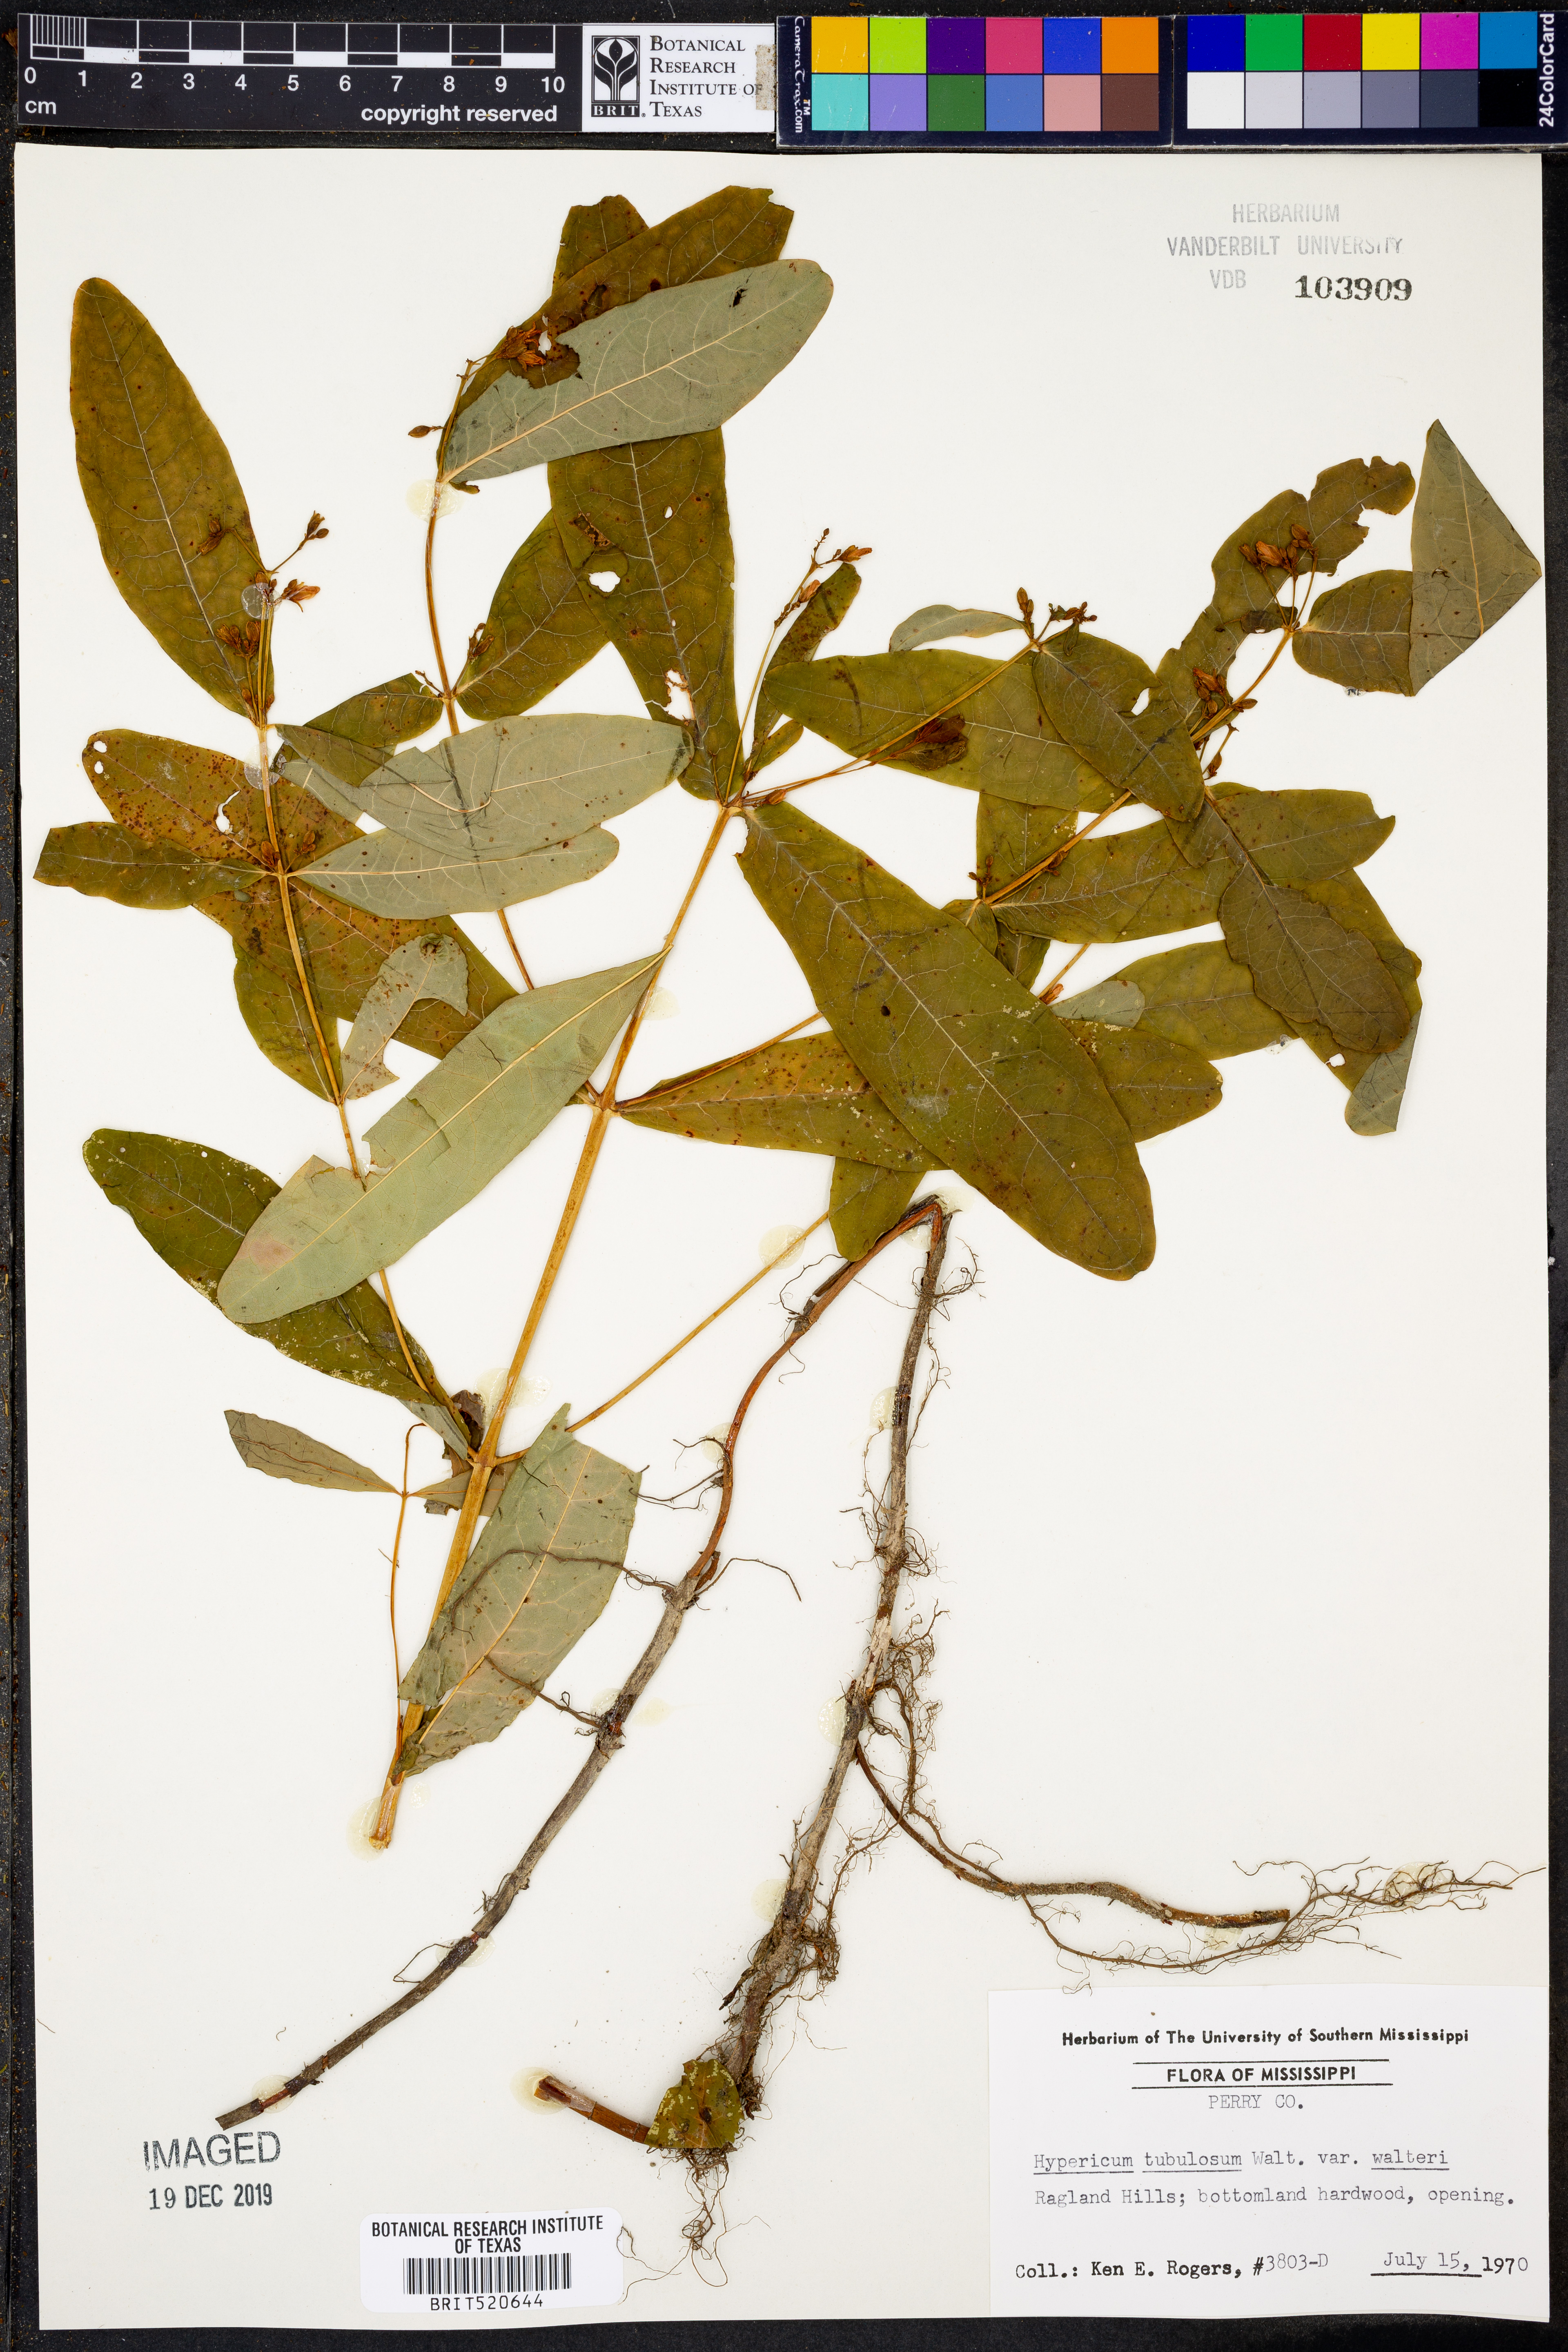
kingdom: Plantae
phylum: Tracheophyta
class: Magnoliopsida
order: Malpighiales
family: Hypericaceae
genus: Triadenum
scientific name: Triadenum walteri
